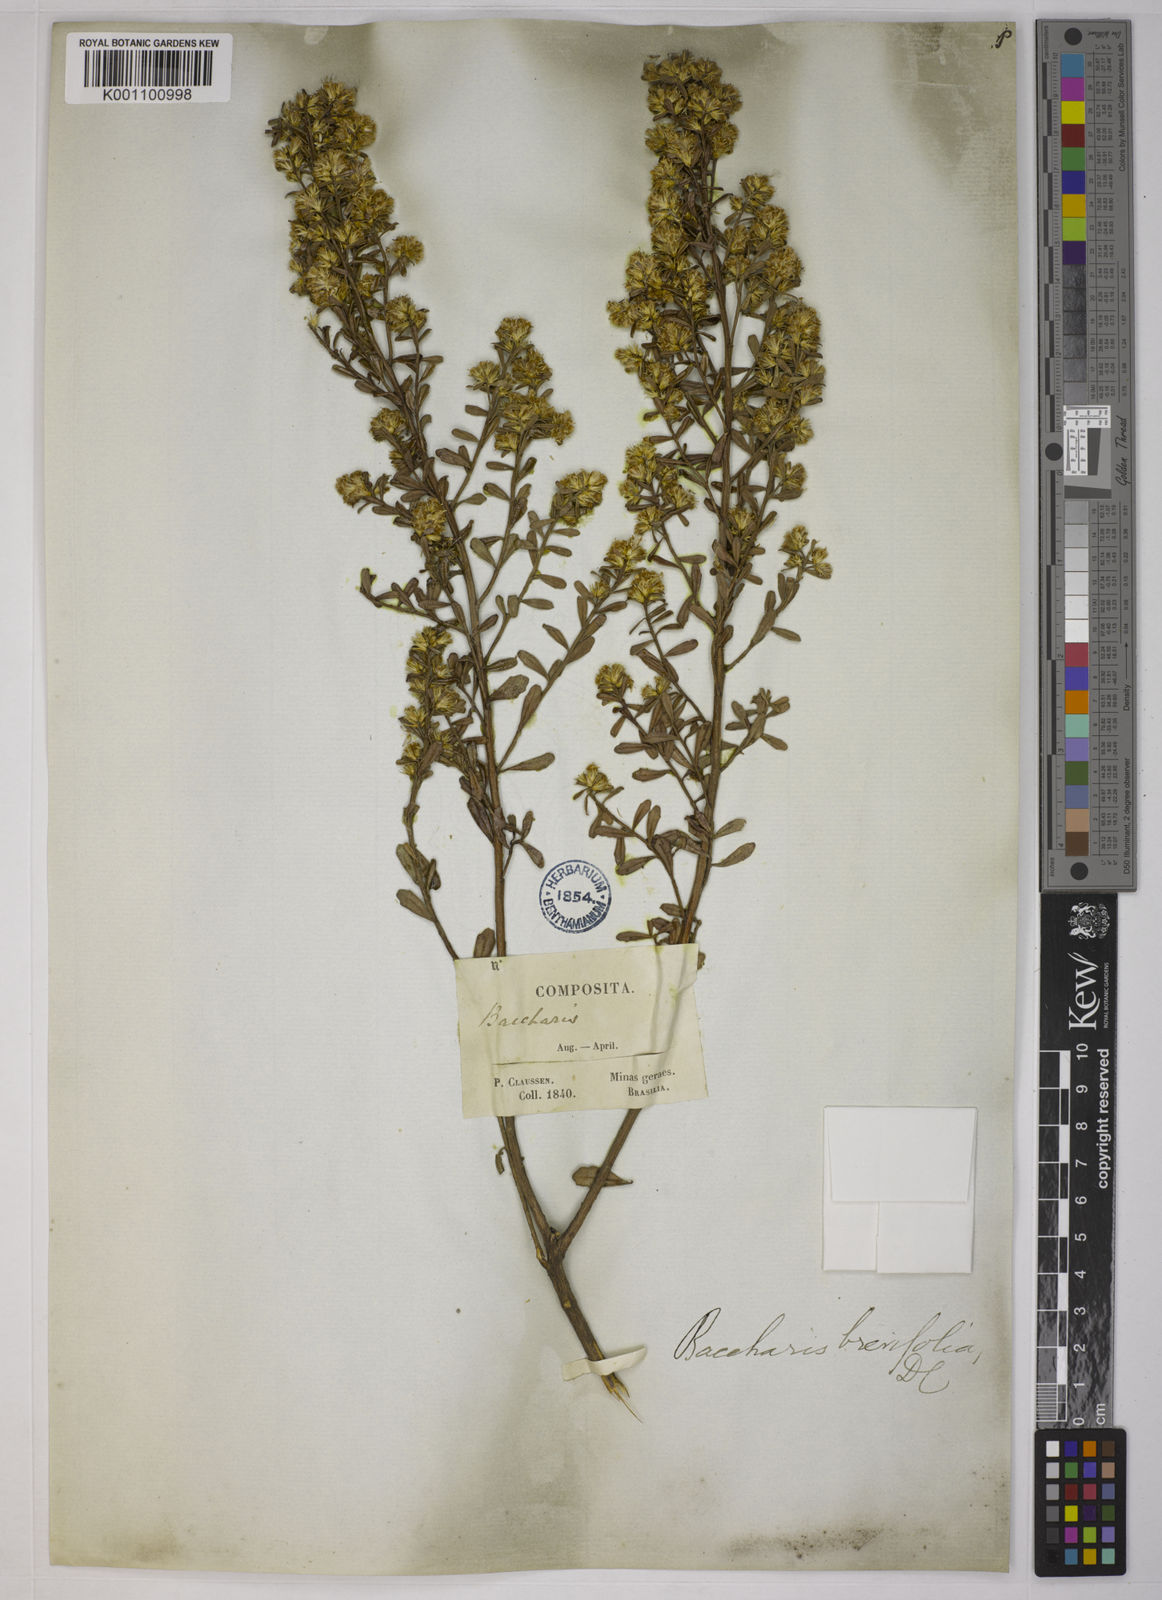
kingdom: Plantae
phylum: Tracheophyta
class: Magnoliopsida
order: Asterales
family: Asteraceae
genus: Baccharis
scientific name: Baccharis brevifolia
